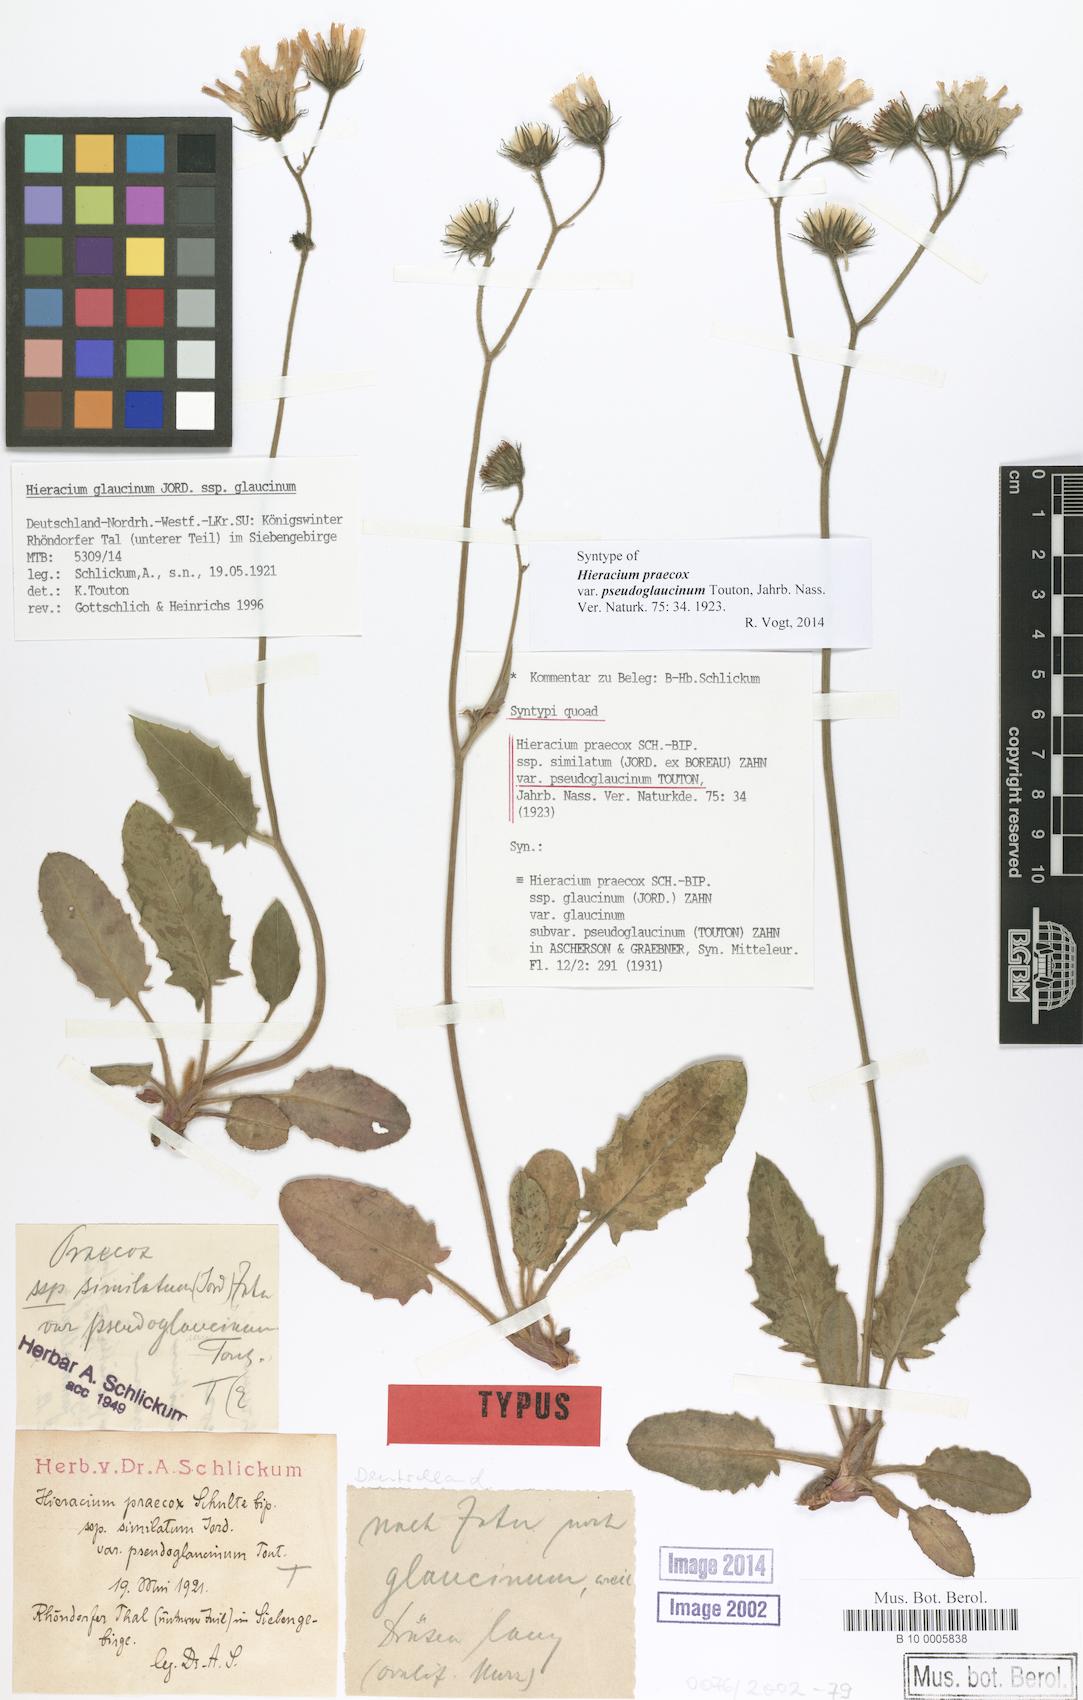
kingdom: Plantae
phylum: Tracheophyta
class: Magnoliopsida
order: Asterales
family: Asteraceae
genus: Hieracium
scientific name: Hieracium praecox
